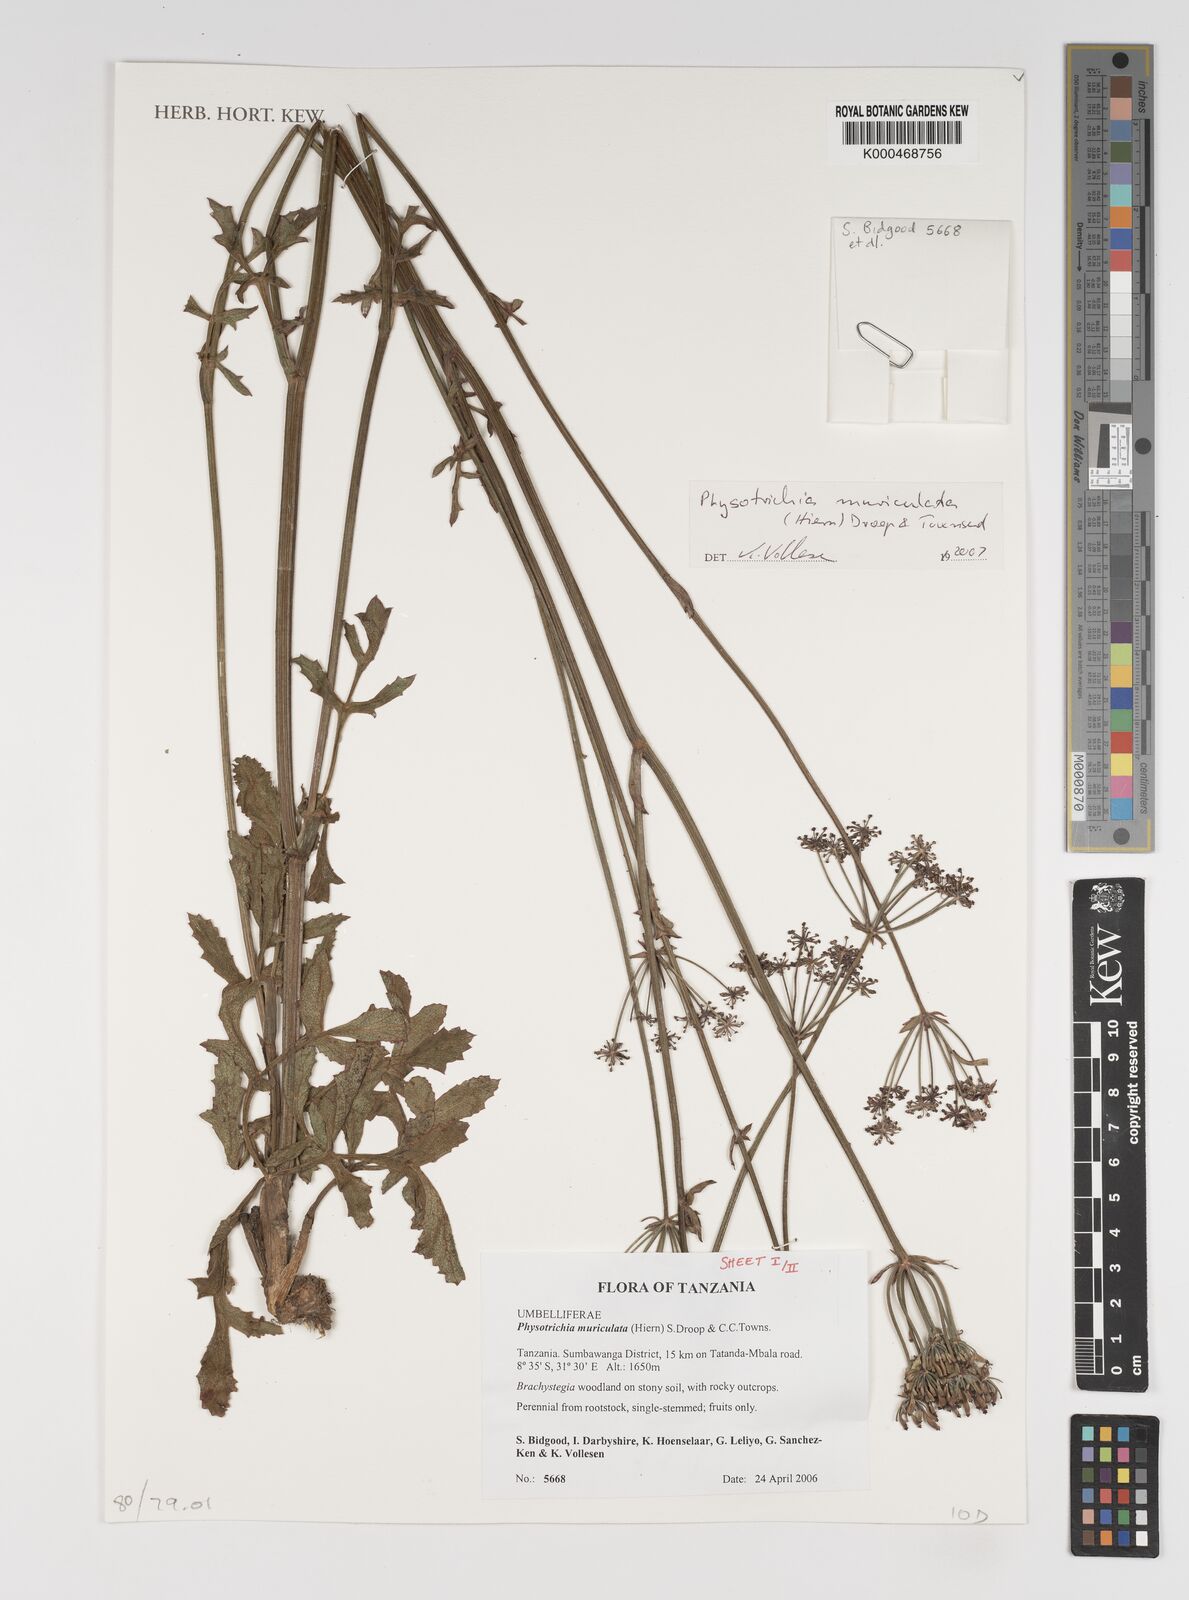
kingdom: Plantae
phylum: Tracheophyta
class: Magnoliopsida
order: Apiales
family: Apiaceae
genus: Physotrichia
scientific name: Physotrichia muriculata
